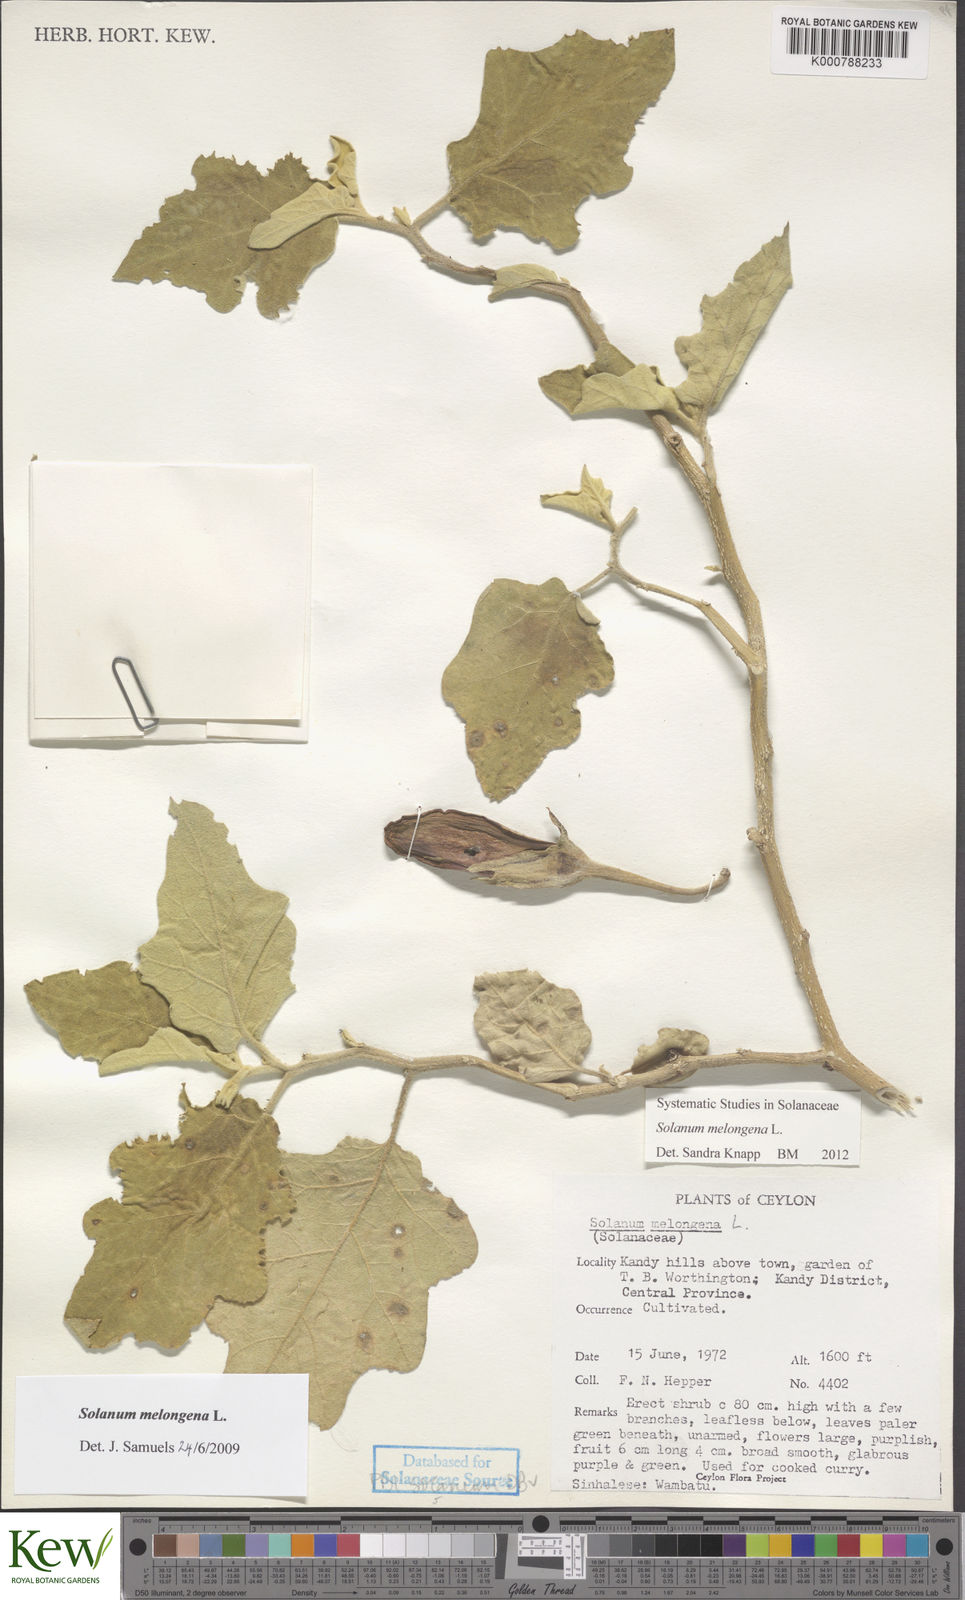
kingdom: Plantae
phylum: Tracheophyta
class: Magnoliopsida
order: Solanales
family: Solanaceae
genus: Solanum
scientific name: Solanum melongena
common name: Eggplant
